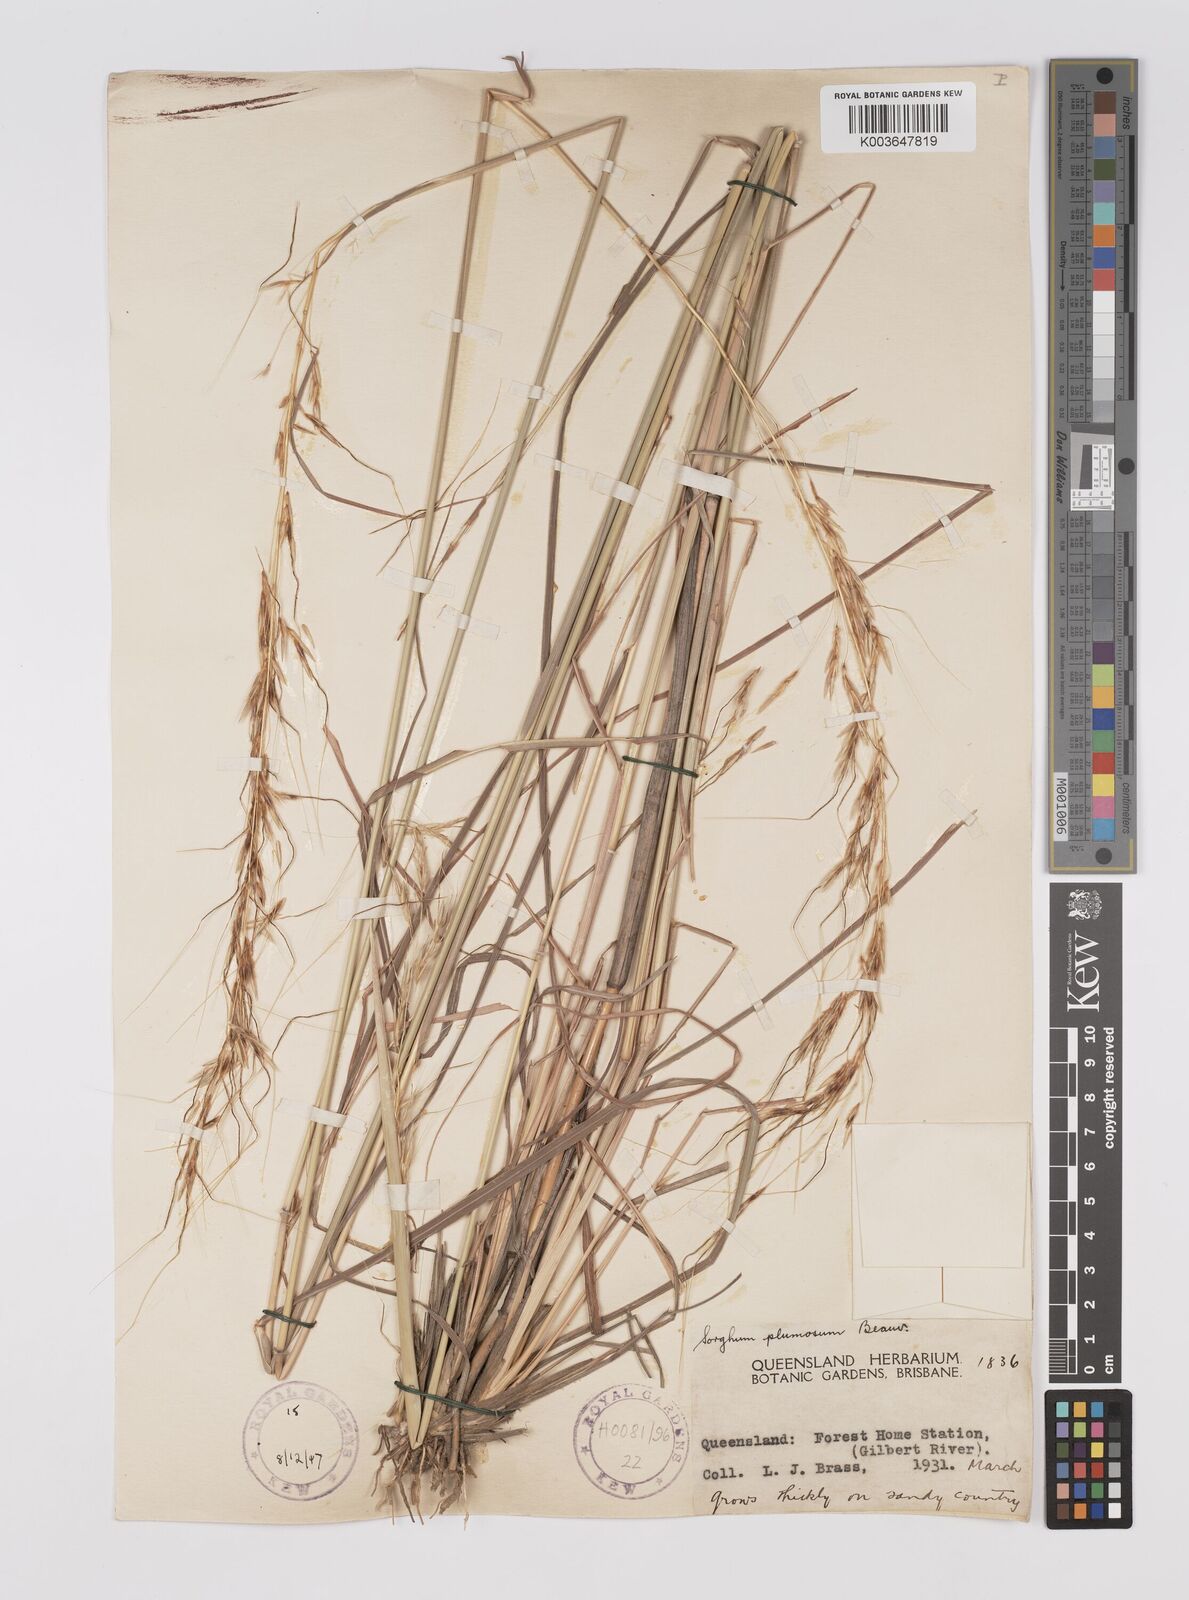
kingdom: Plantae
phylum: Tracheophyta
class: Liliopsida
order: Poales
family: Poaceae
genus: Sarga
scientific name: Sarga plumosa
